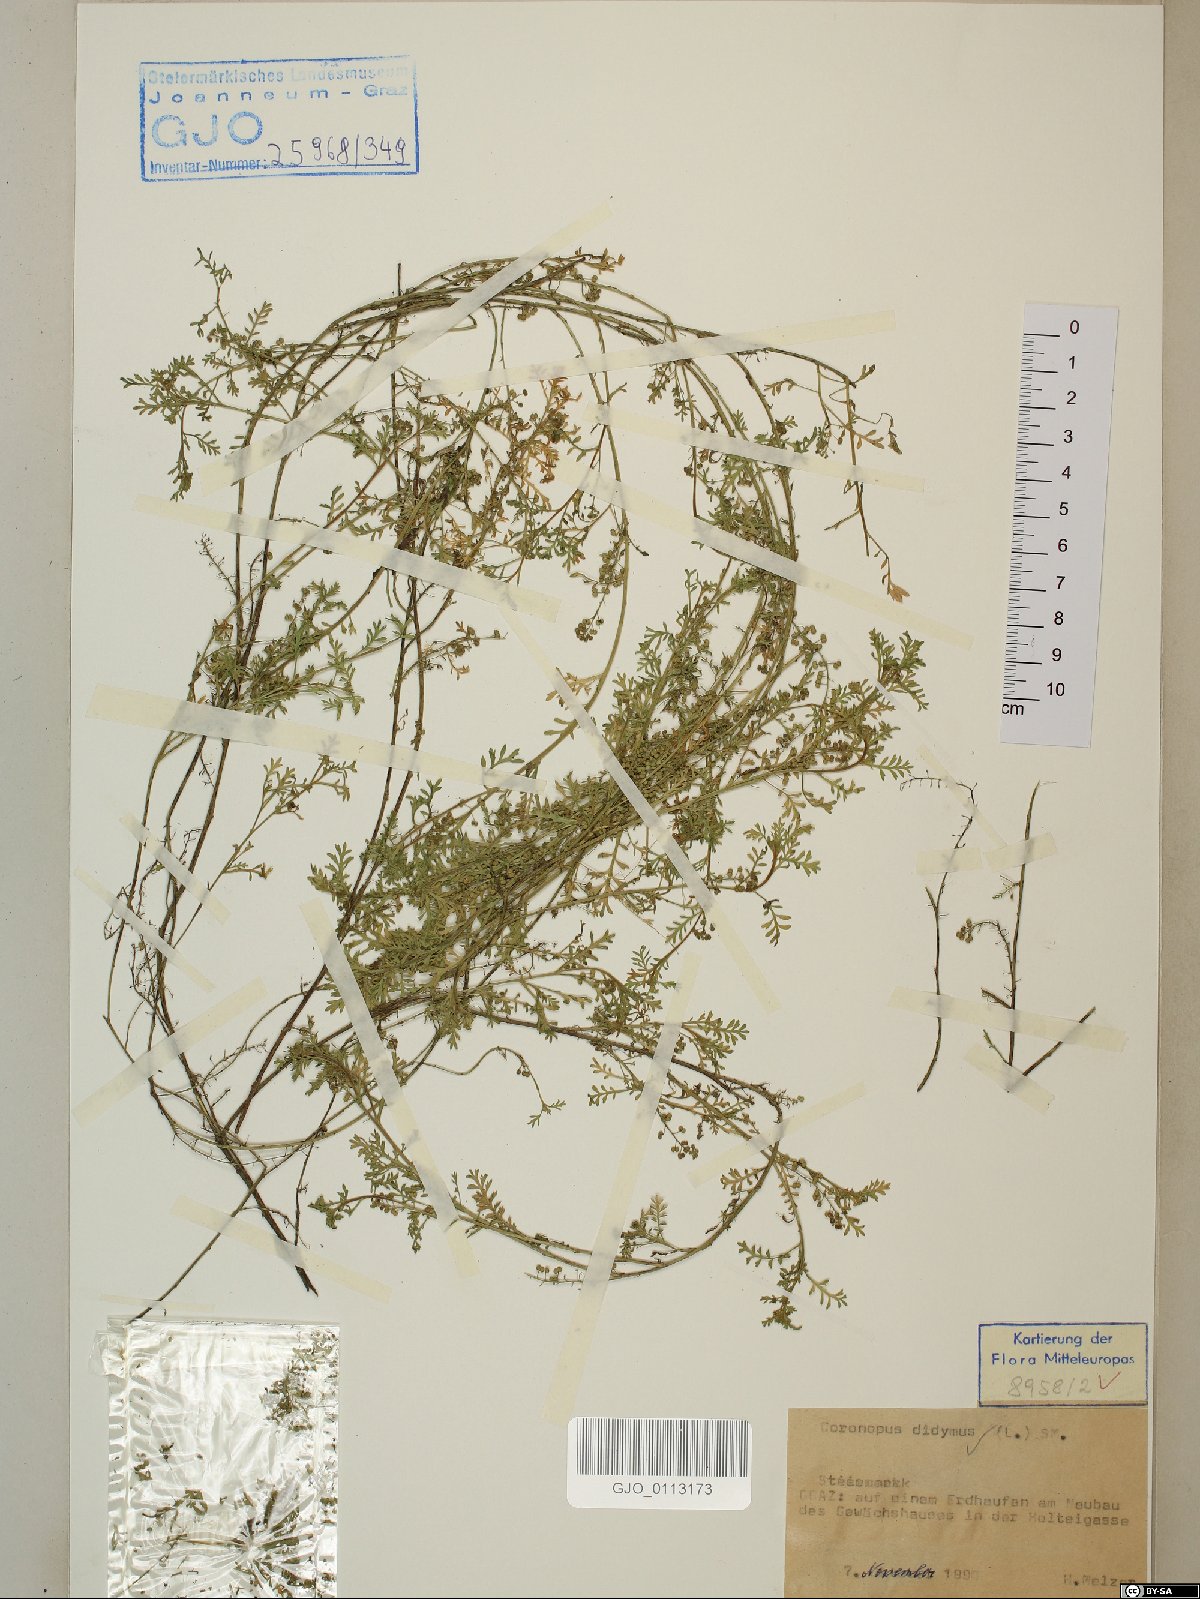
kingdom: Plantae
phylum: Tracheophyta
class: Magnoliopsida
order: Brassicales
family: Brassicaceae
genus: Lepidium
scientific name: Lepidium didymum
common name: Lesser swinecress
